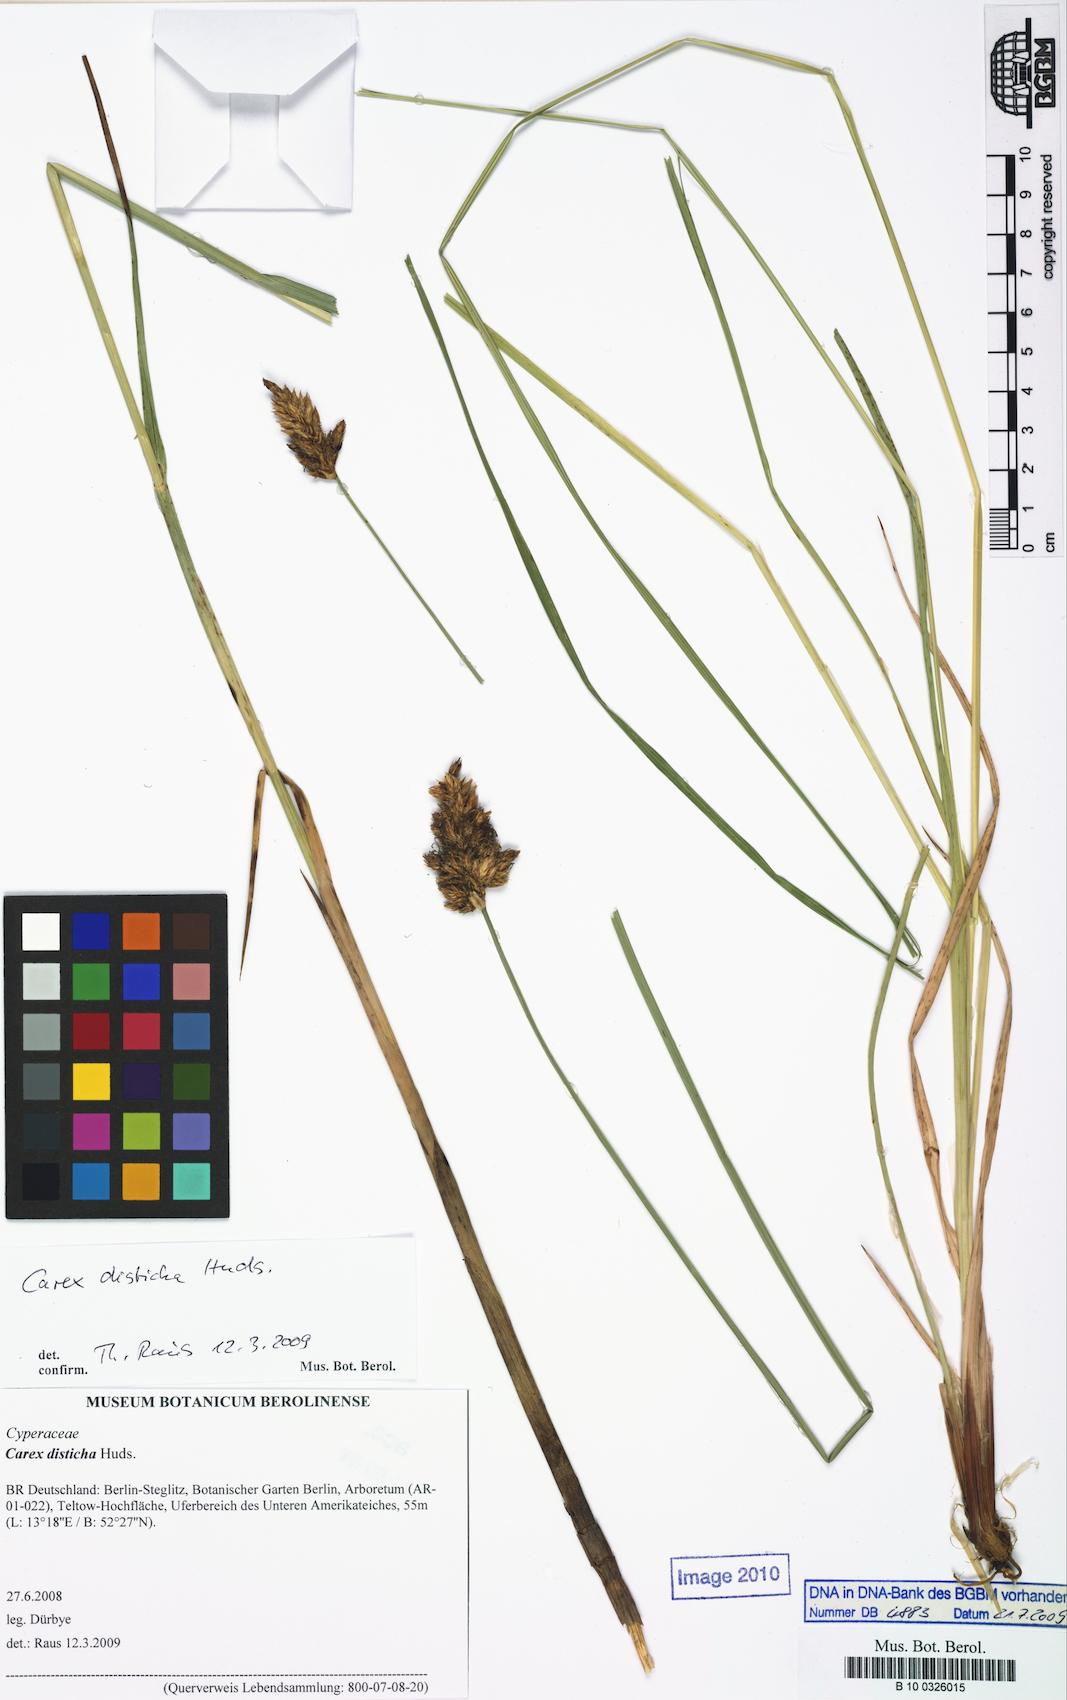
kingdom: Plantae
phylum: Tracheophyta
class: Liliopsida
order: Poales
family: Cyperaceae
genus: Carex
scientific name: Carex disticha
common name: Brown sedge
